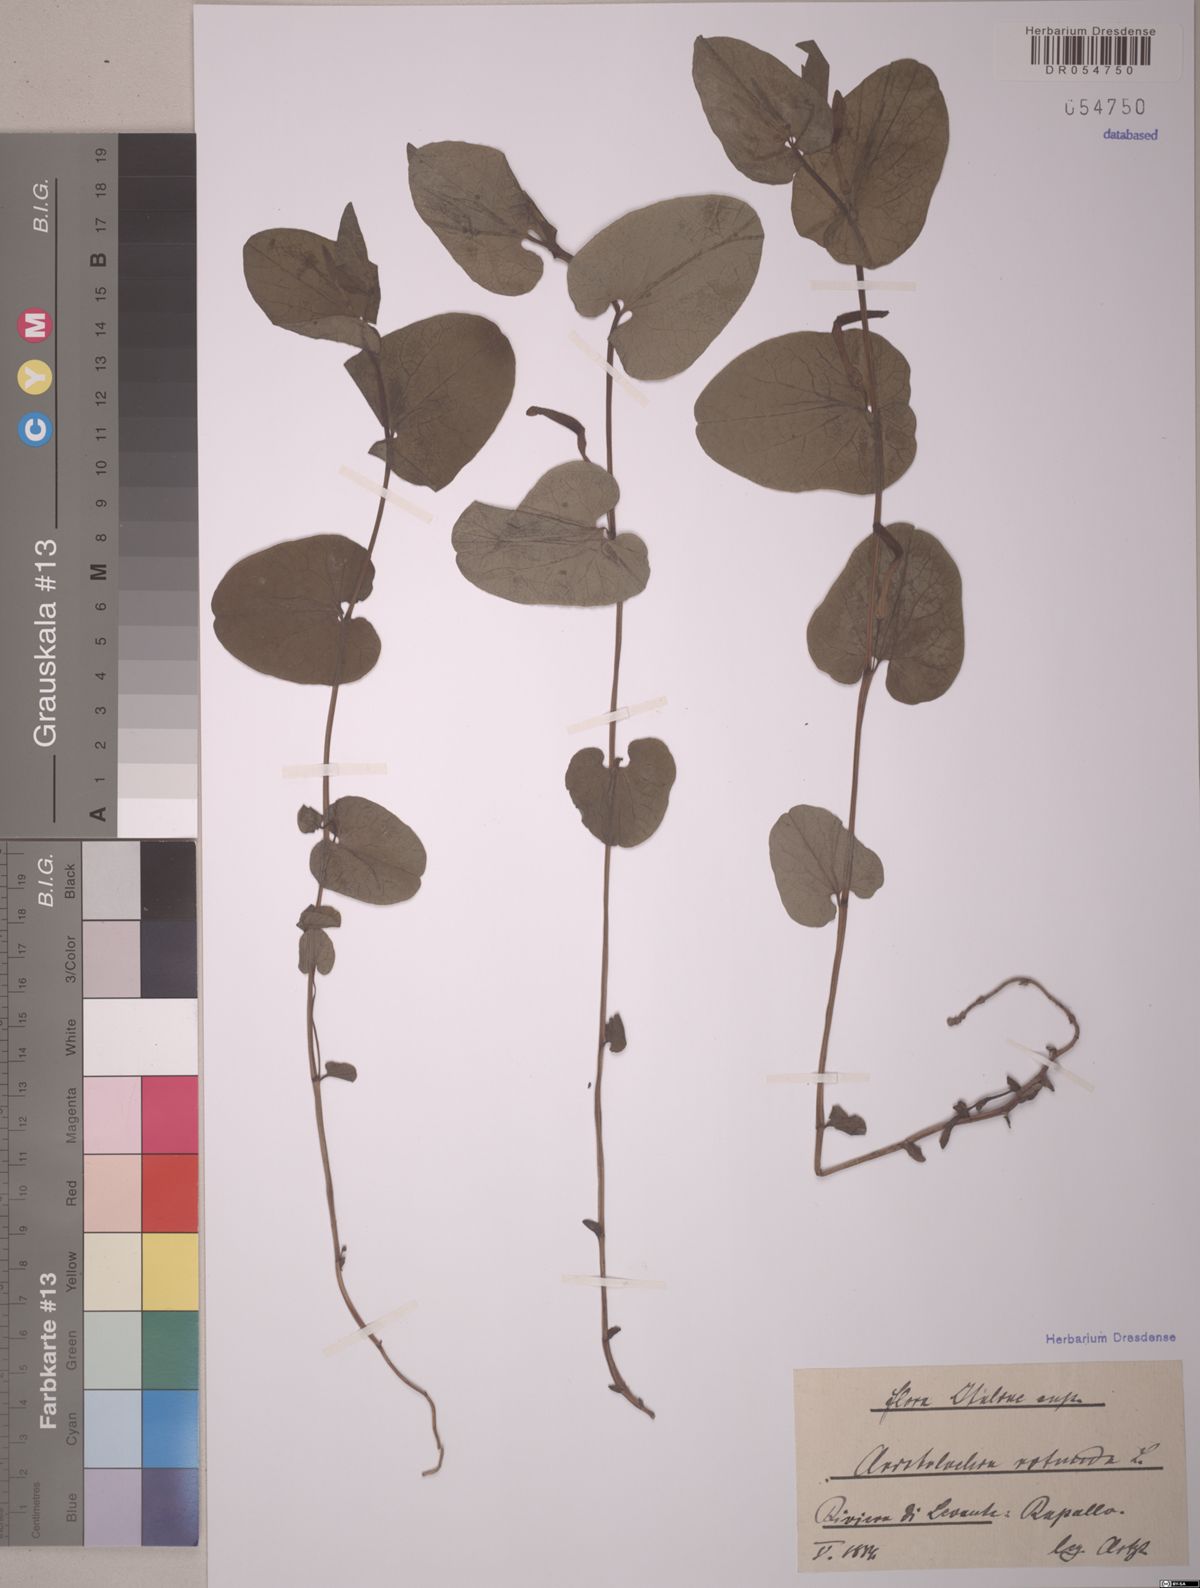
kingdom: Plantae
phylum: Tracheophyta
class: Magnoliopsida
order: Piperales
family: Aristolochiaceae
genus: Aristolochia
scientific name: Aristolochia rotunda
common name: Smearwort
